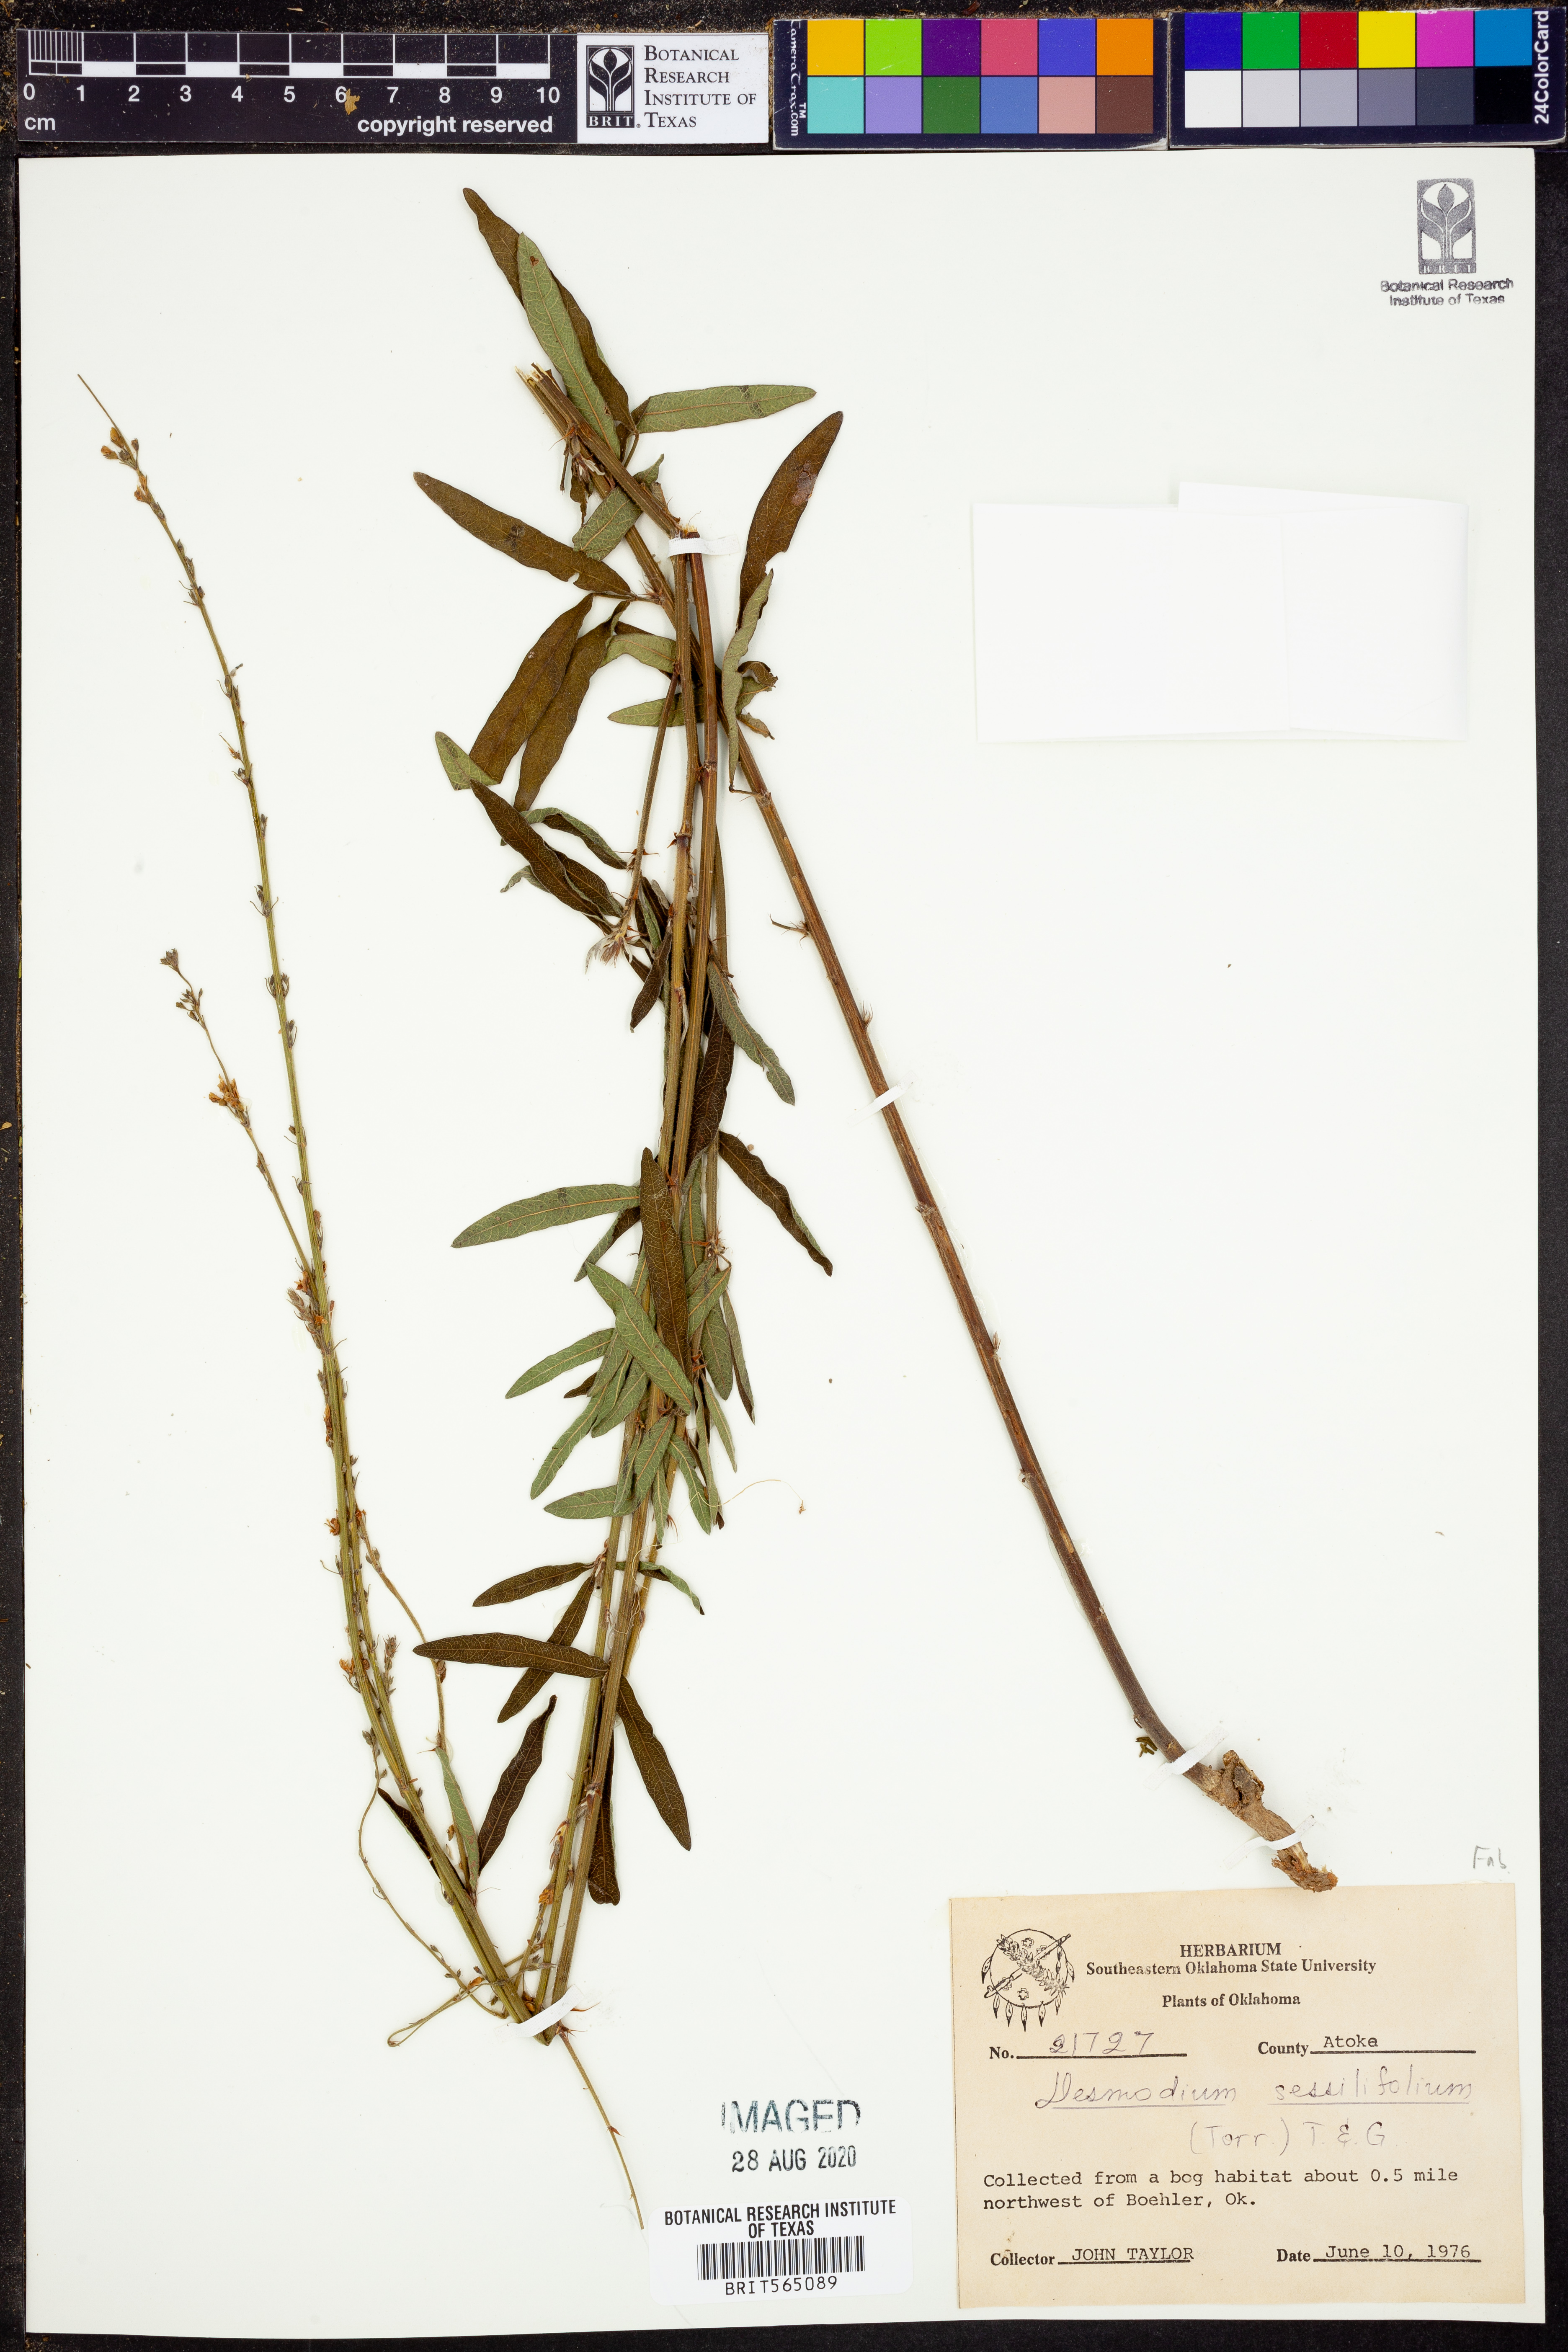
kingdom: Plantae
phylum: Tracheophyta
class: Magnoliopsida
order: Fabales
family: Fabaceae
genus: Desmodium
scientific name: Desmodium sessilifolium
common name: Sessile tick-clover
